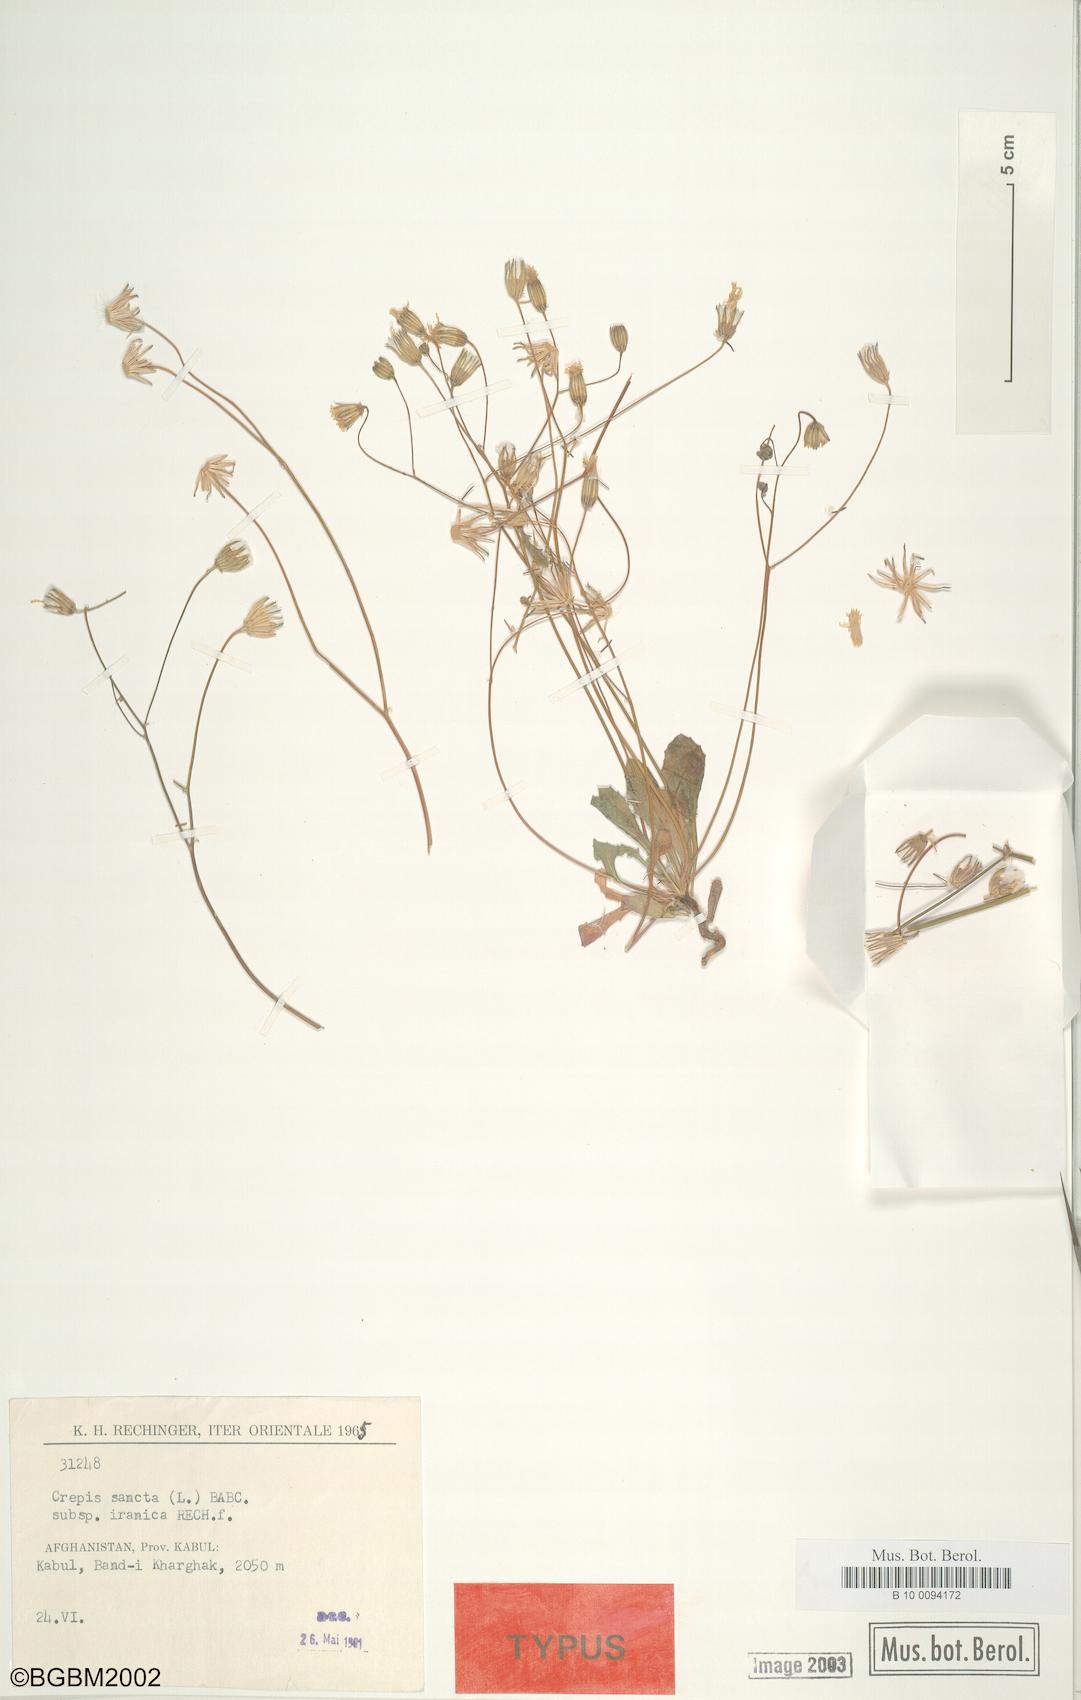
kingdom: Plantae
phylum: Tracheophyta
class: Magnoliopsida
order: Asterales
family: Asteraceae
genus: Crepis
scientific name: Crepis sancta
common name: Hawk's-beard
